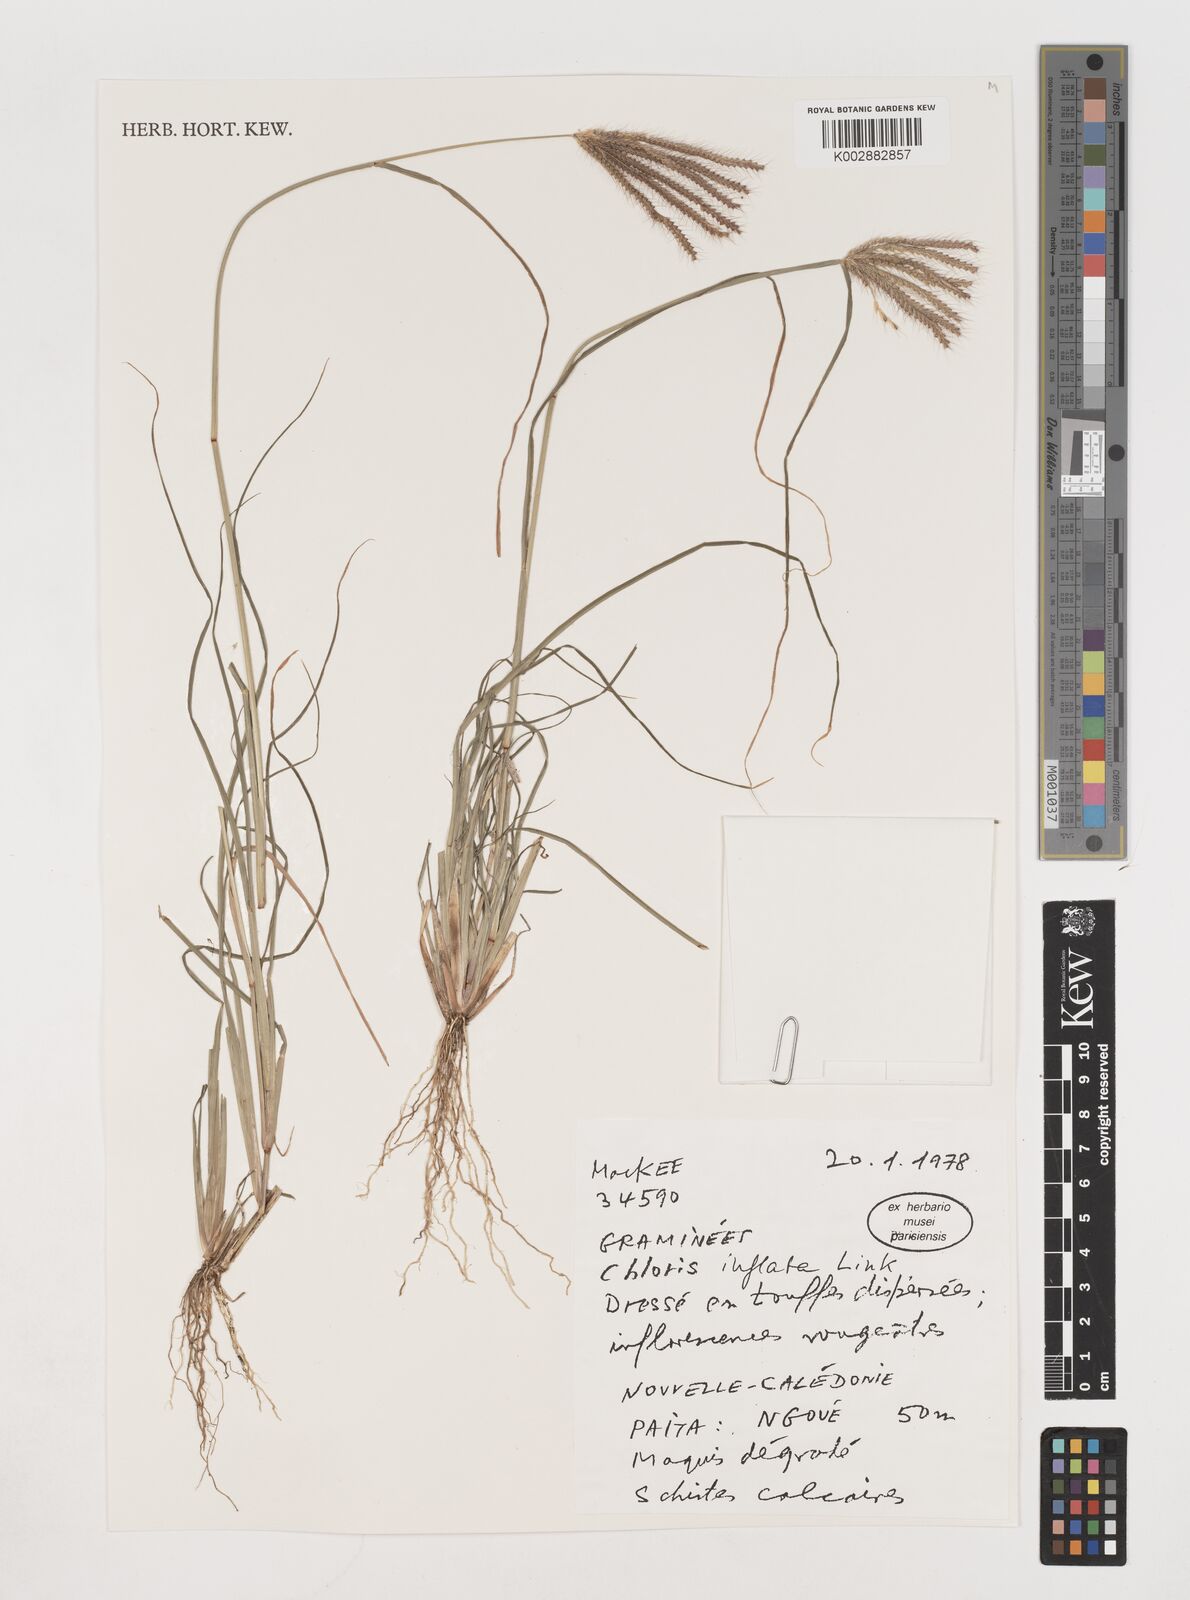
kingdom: Plantae
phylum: Tracheophyta
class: Liliopsida
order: Poales
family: Poaceae
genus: Chloris
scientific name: Chloris barbata
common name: Swollen fingergrass
